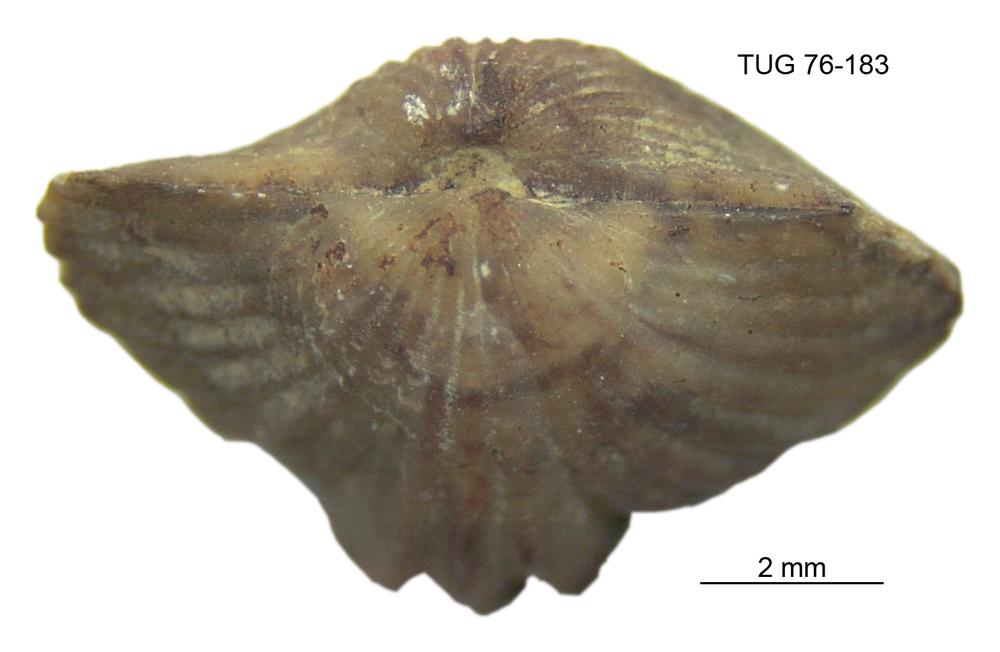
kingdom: Animalia
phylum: Brachiopoda
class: Rhynchonellata
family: Plectorthidae
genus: Platystrophia
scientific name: Platystrophia dentata
